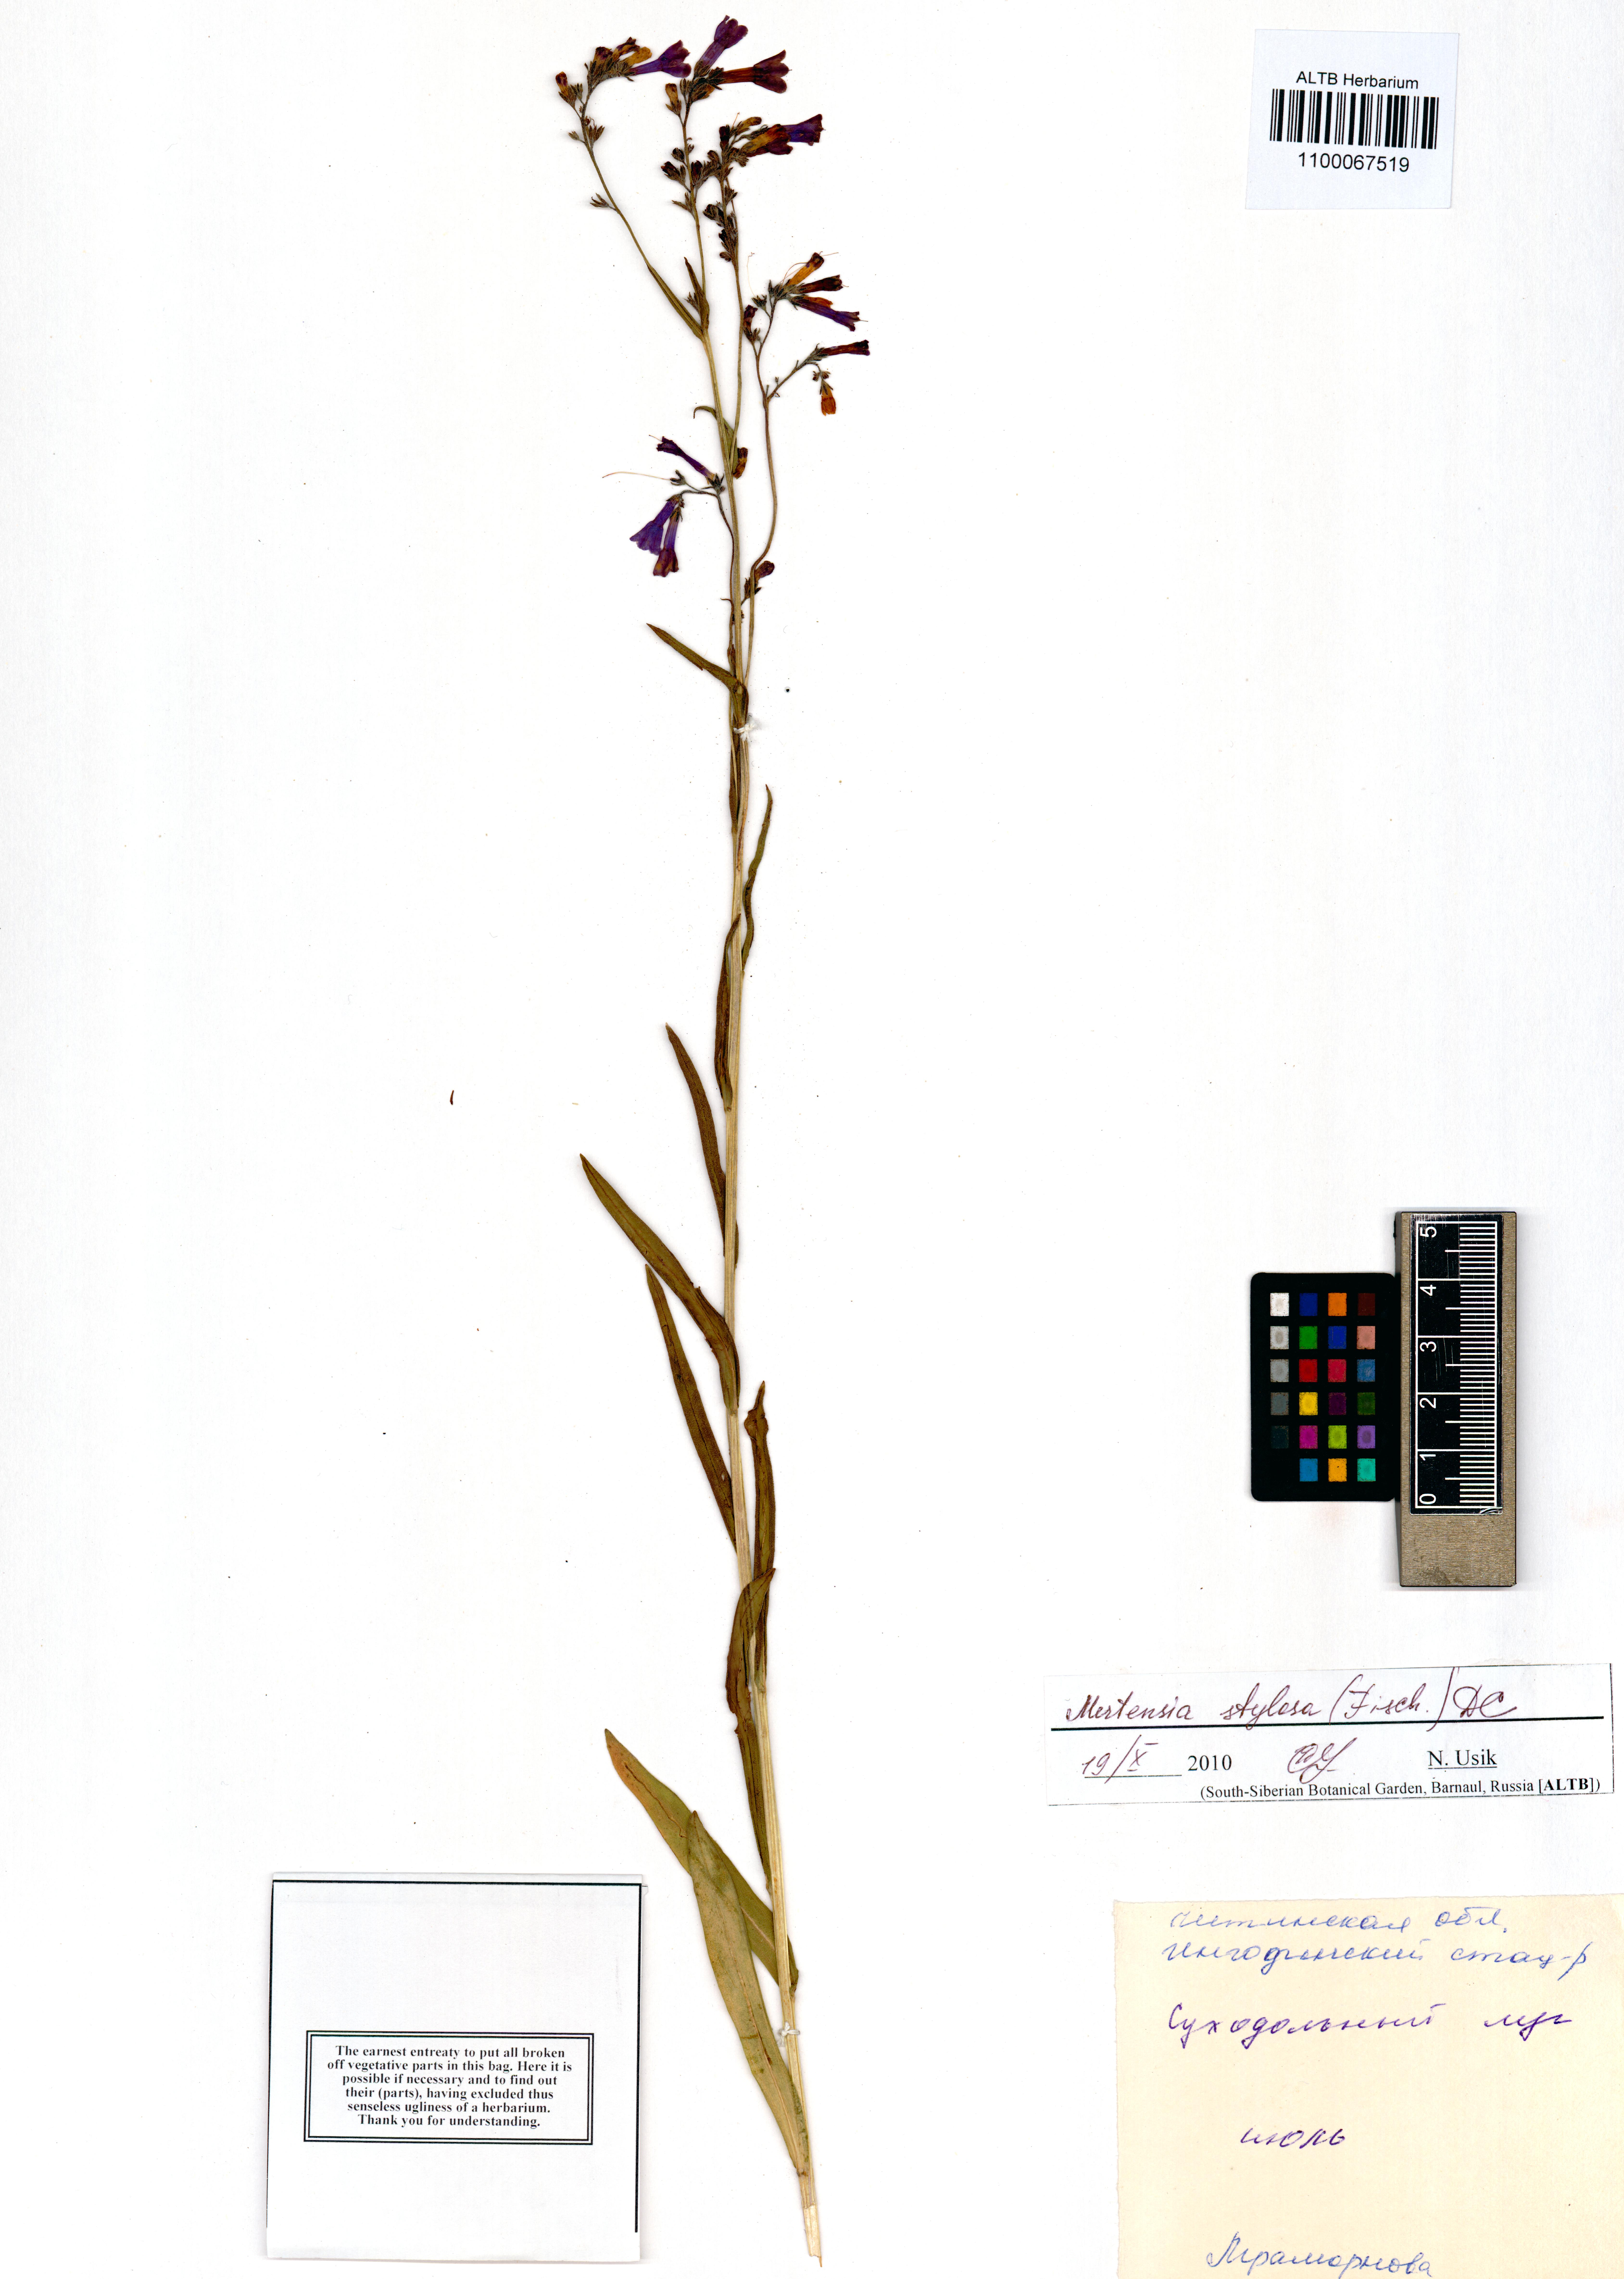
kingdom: Plantae
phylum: Tracheophyta
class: Magnoliopsida
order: Boraginales
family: Boraginaceae
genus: Mertensia
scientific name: Mertensia stylosa
